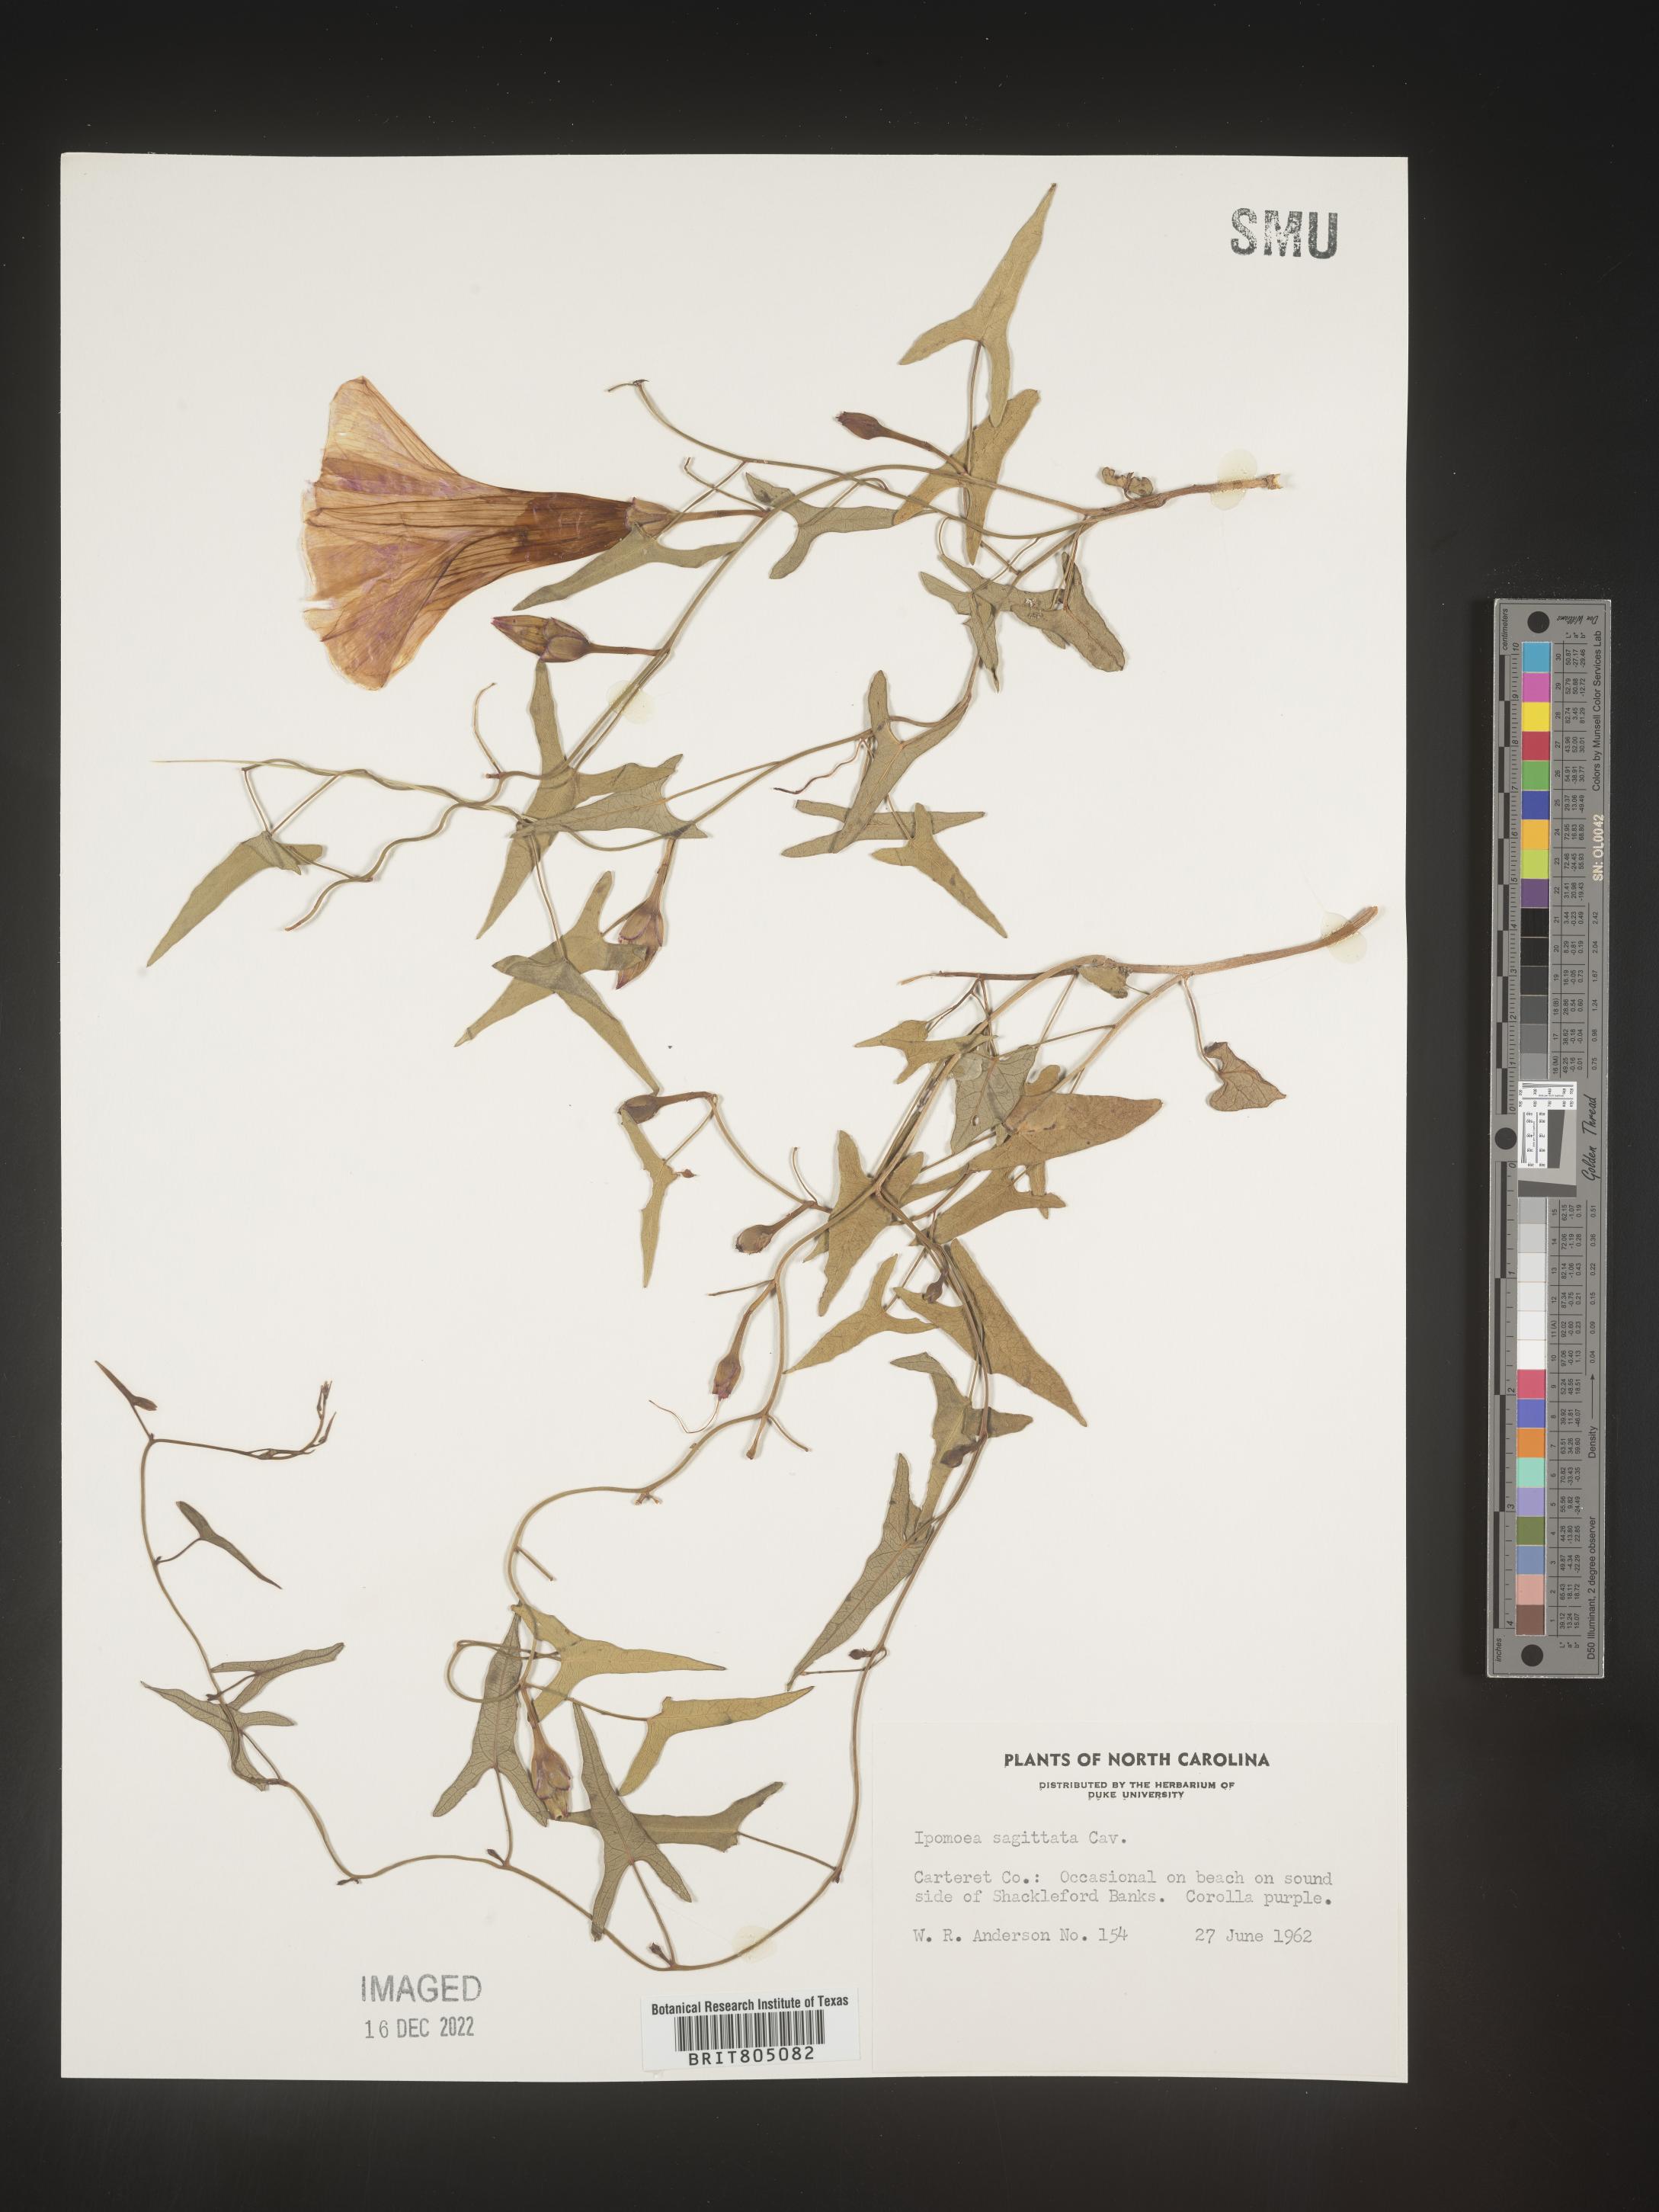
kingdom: Plantae
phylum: Tracheophyta
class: Magnoliopsida
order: Solanales
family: Convolvulaceae
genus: Ipomoea
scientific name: Ipomoea sinensis
